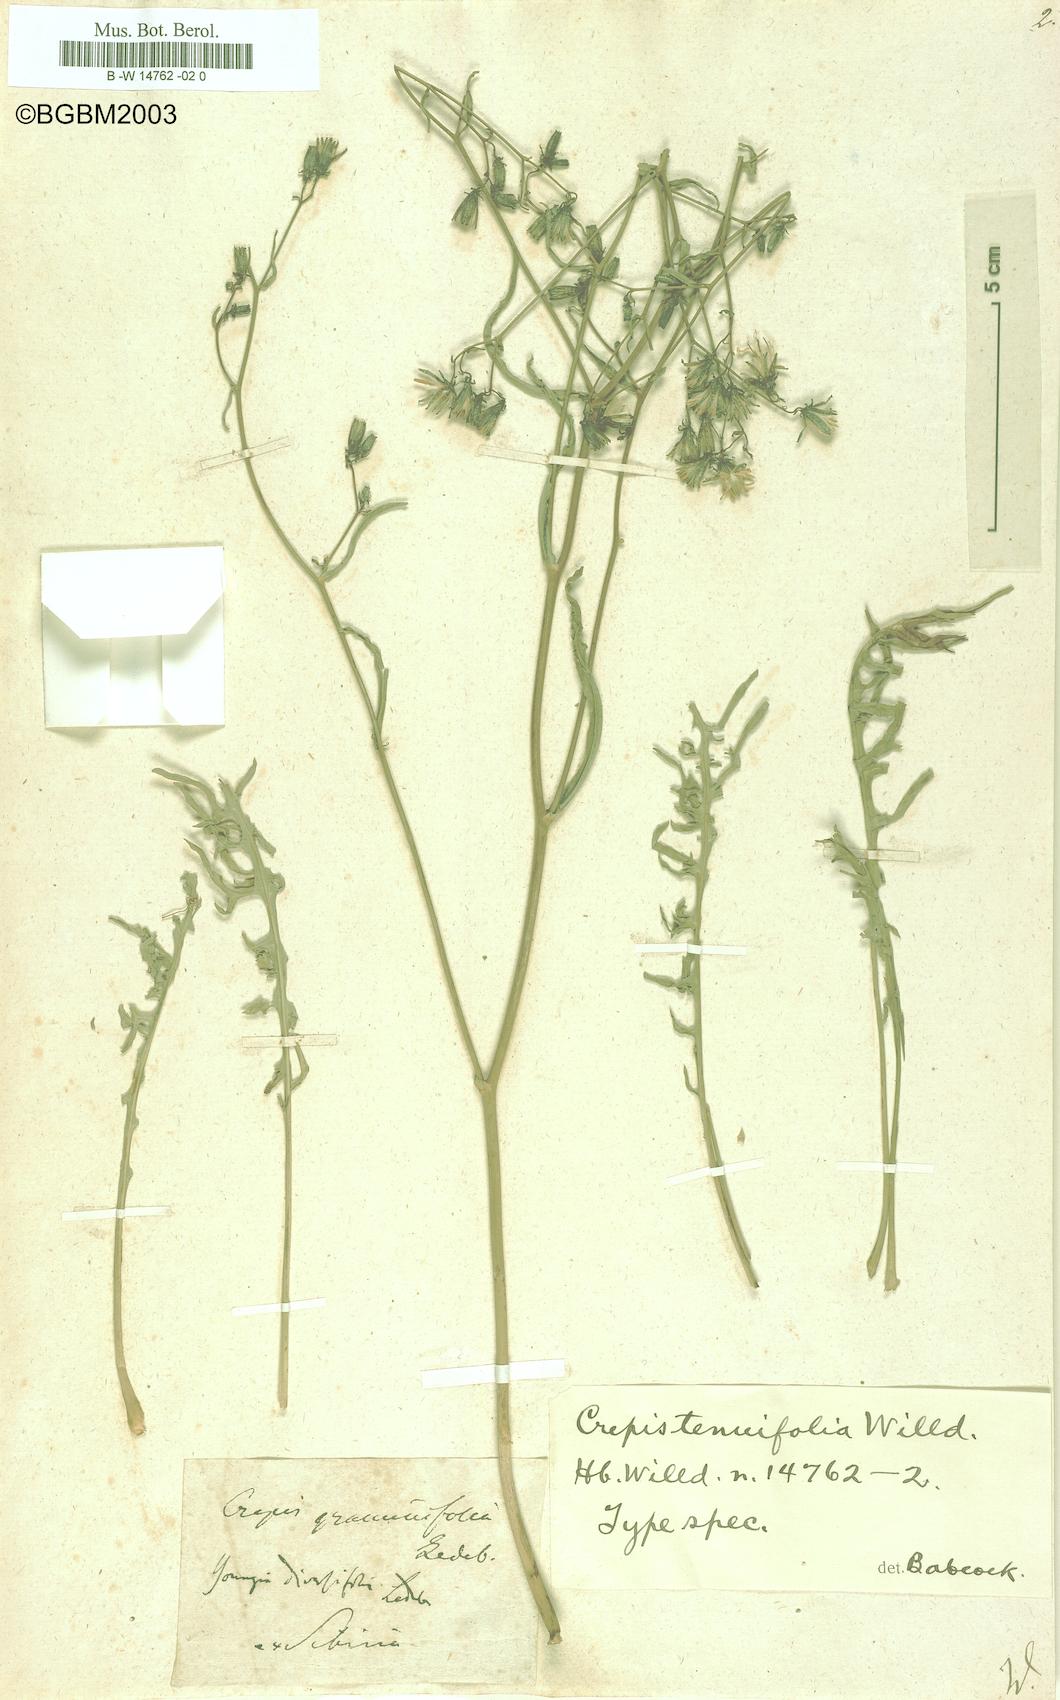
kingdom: Plantae
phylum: Tracheophyta
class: Magnoliopsida
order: Asterales
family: Asteraceae
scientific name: Asteraceae
